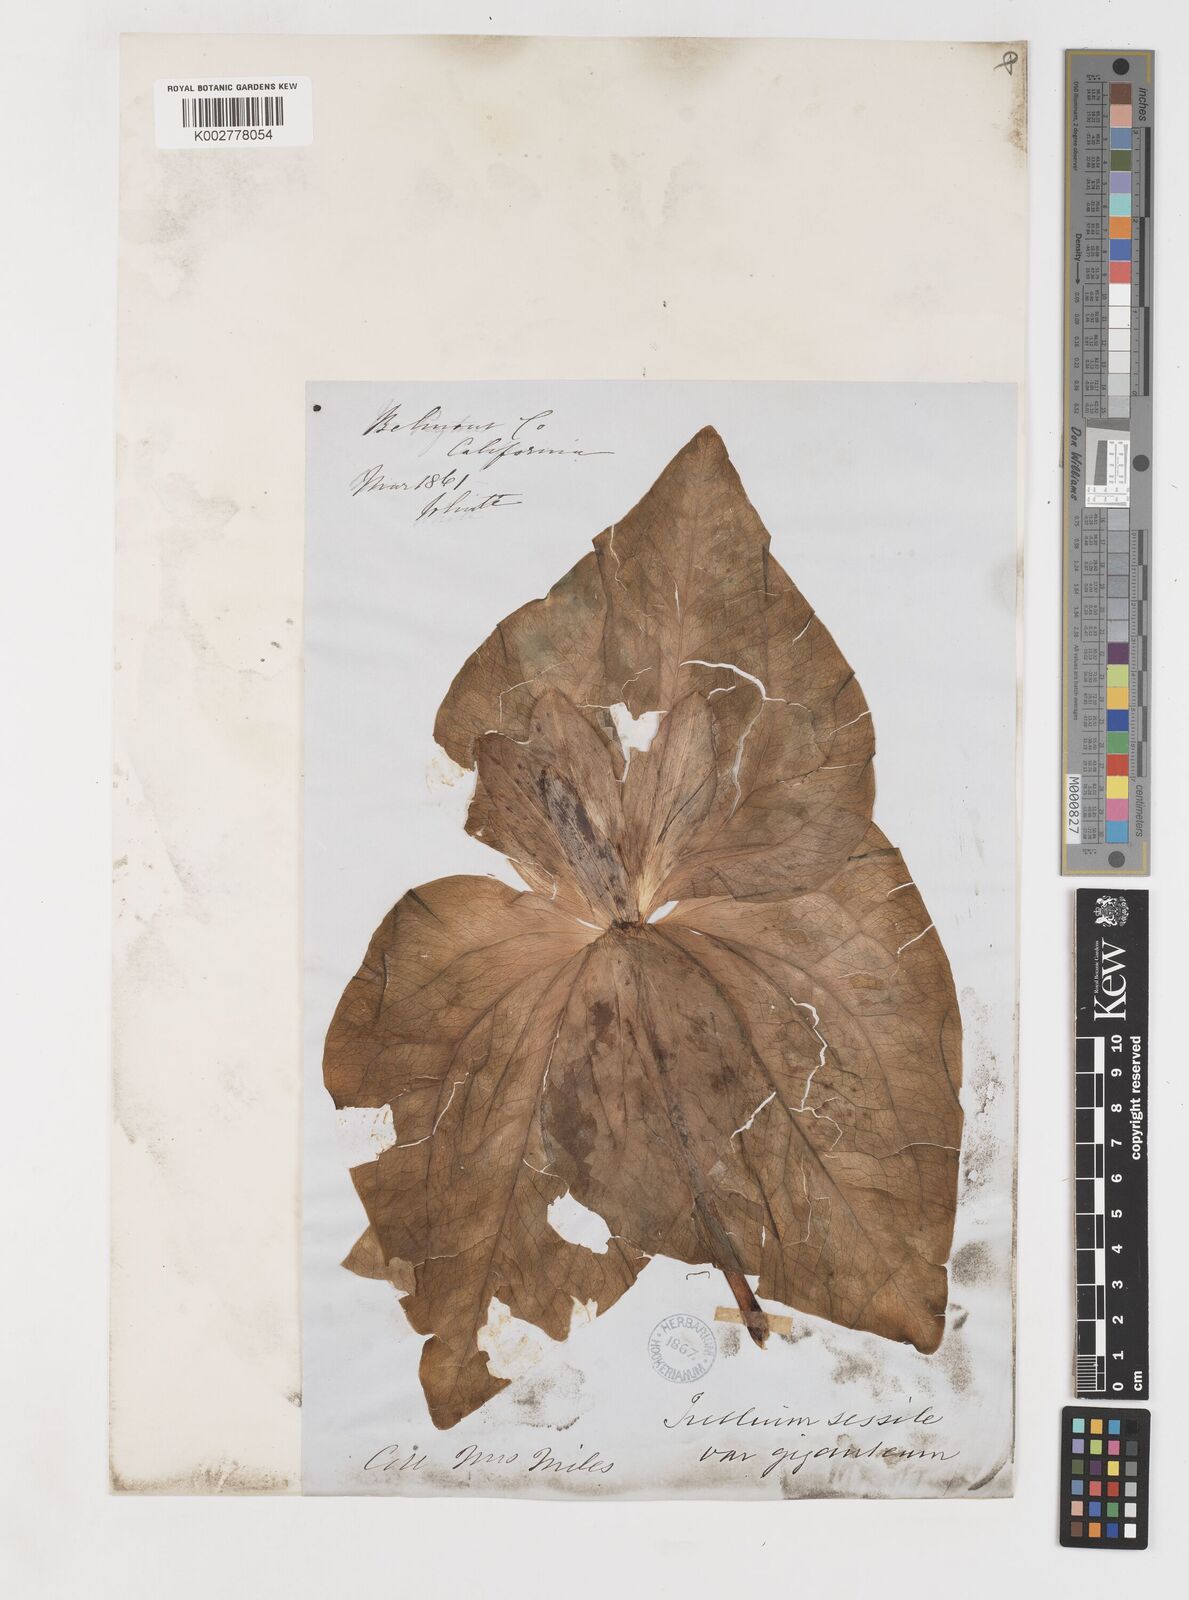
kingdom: Plantae
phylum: Tracheophyta
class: Liliopsida
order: Liliales
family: Melanthiaceae
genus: Trillium
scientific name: Trillium
